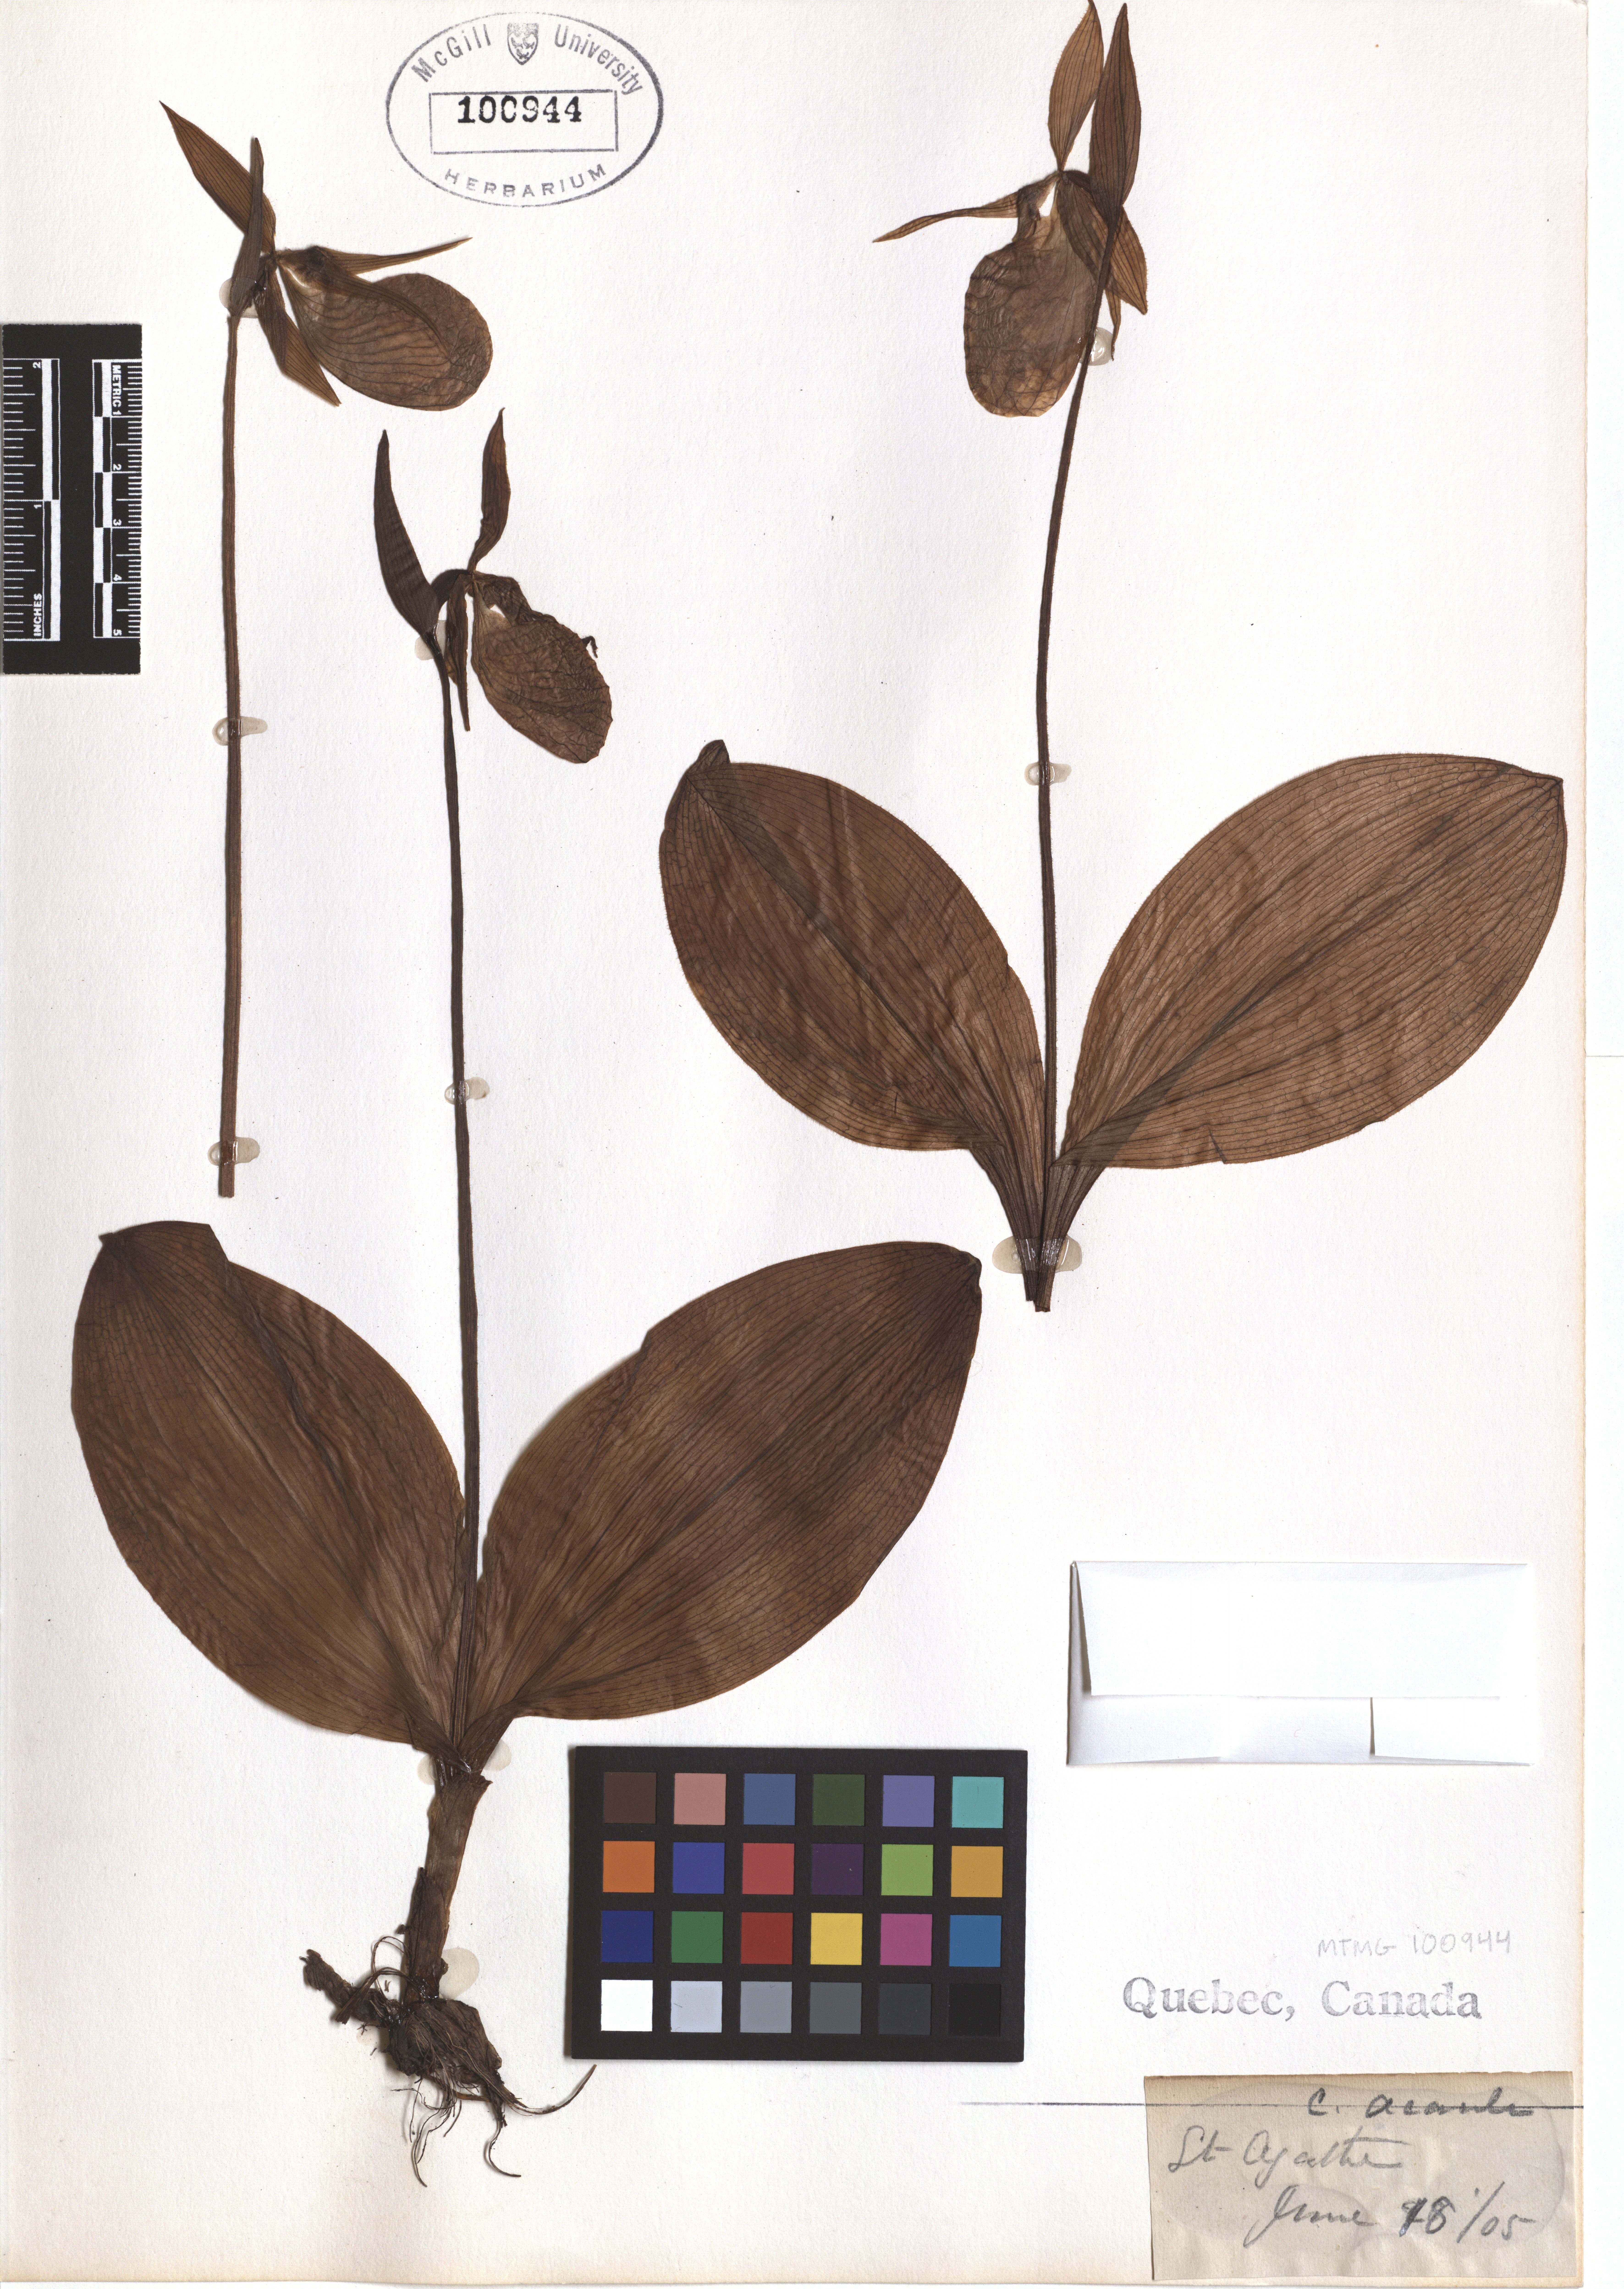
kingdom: Plantae
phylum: Tracheophyta
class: Liliopsida
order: Asparagales
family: Orchidaceae
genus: Cypripedium
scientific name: Cypripedium acaule
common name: Pink lady's-slipper
